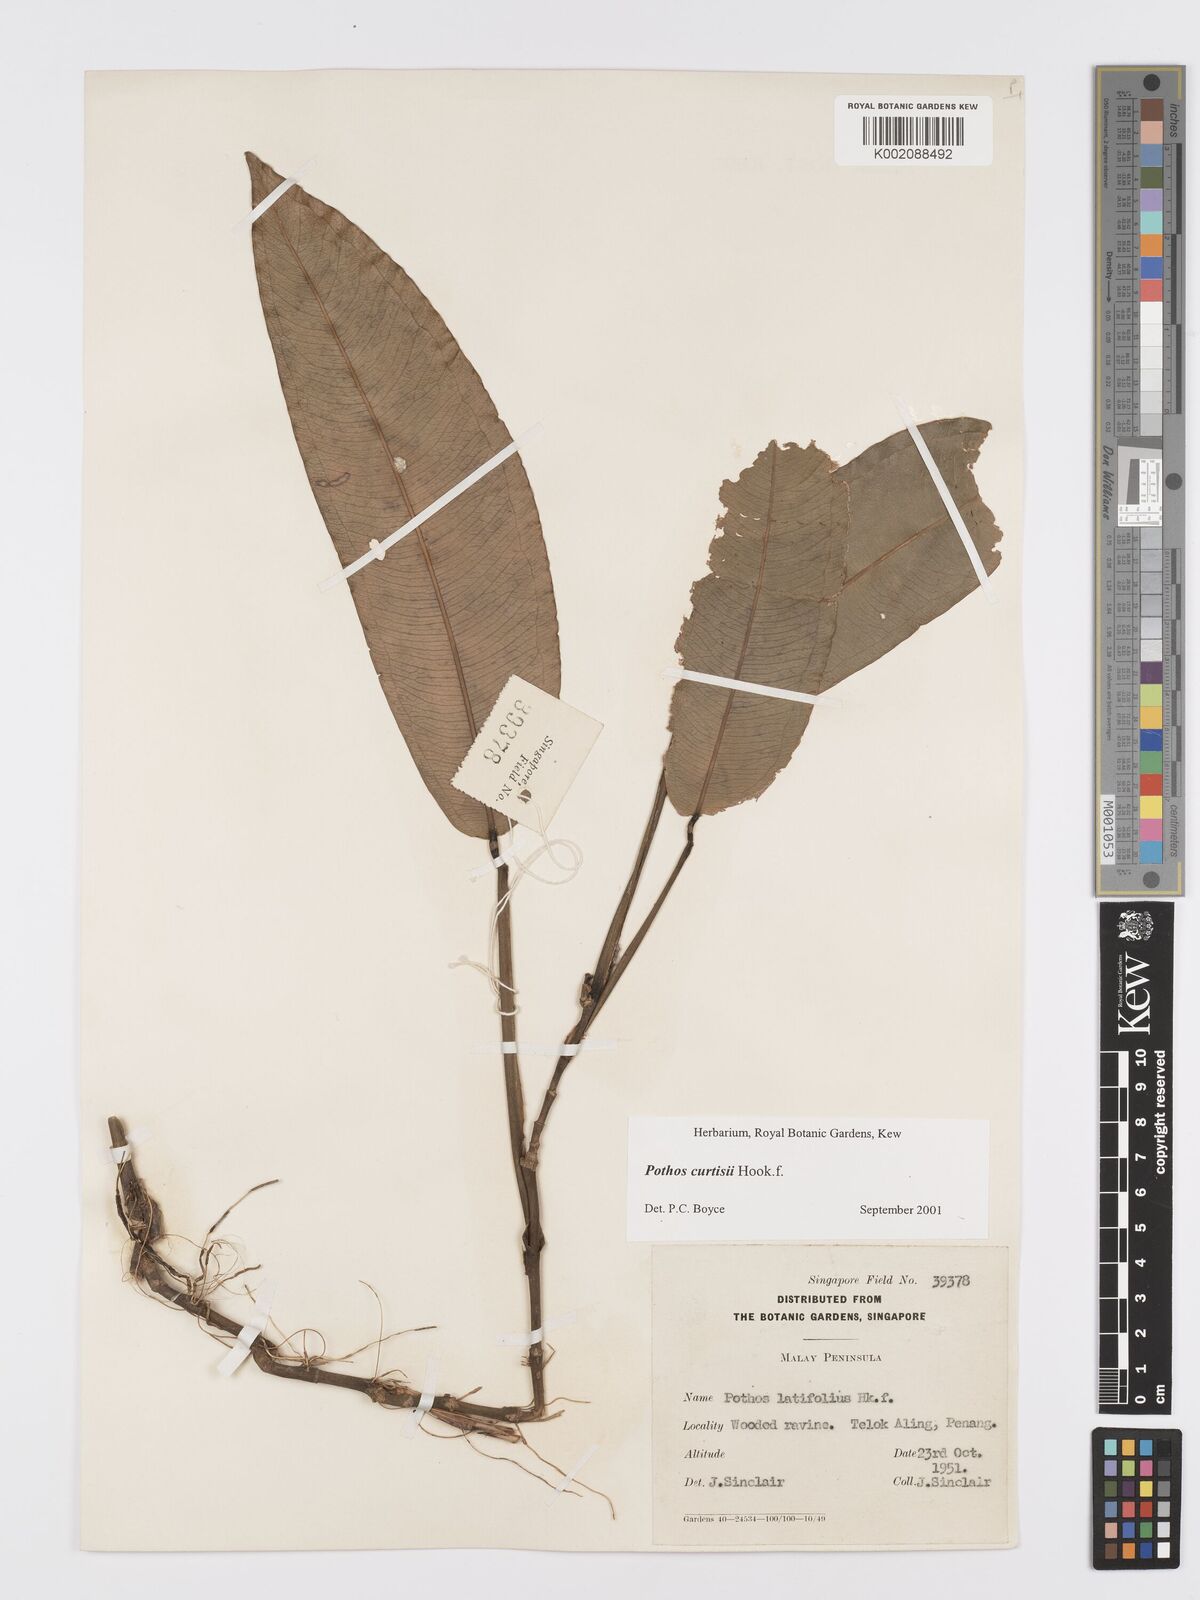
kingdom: Plantae
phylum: Tracheophyta
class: Liliopsida
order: Alismatales
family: Araceae
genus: Pothos
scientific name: Pothos curtisii
